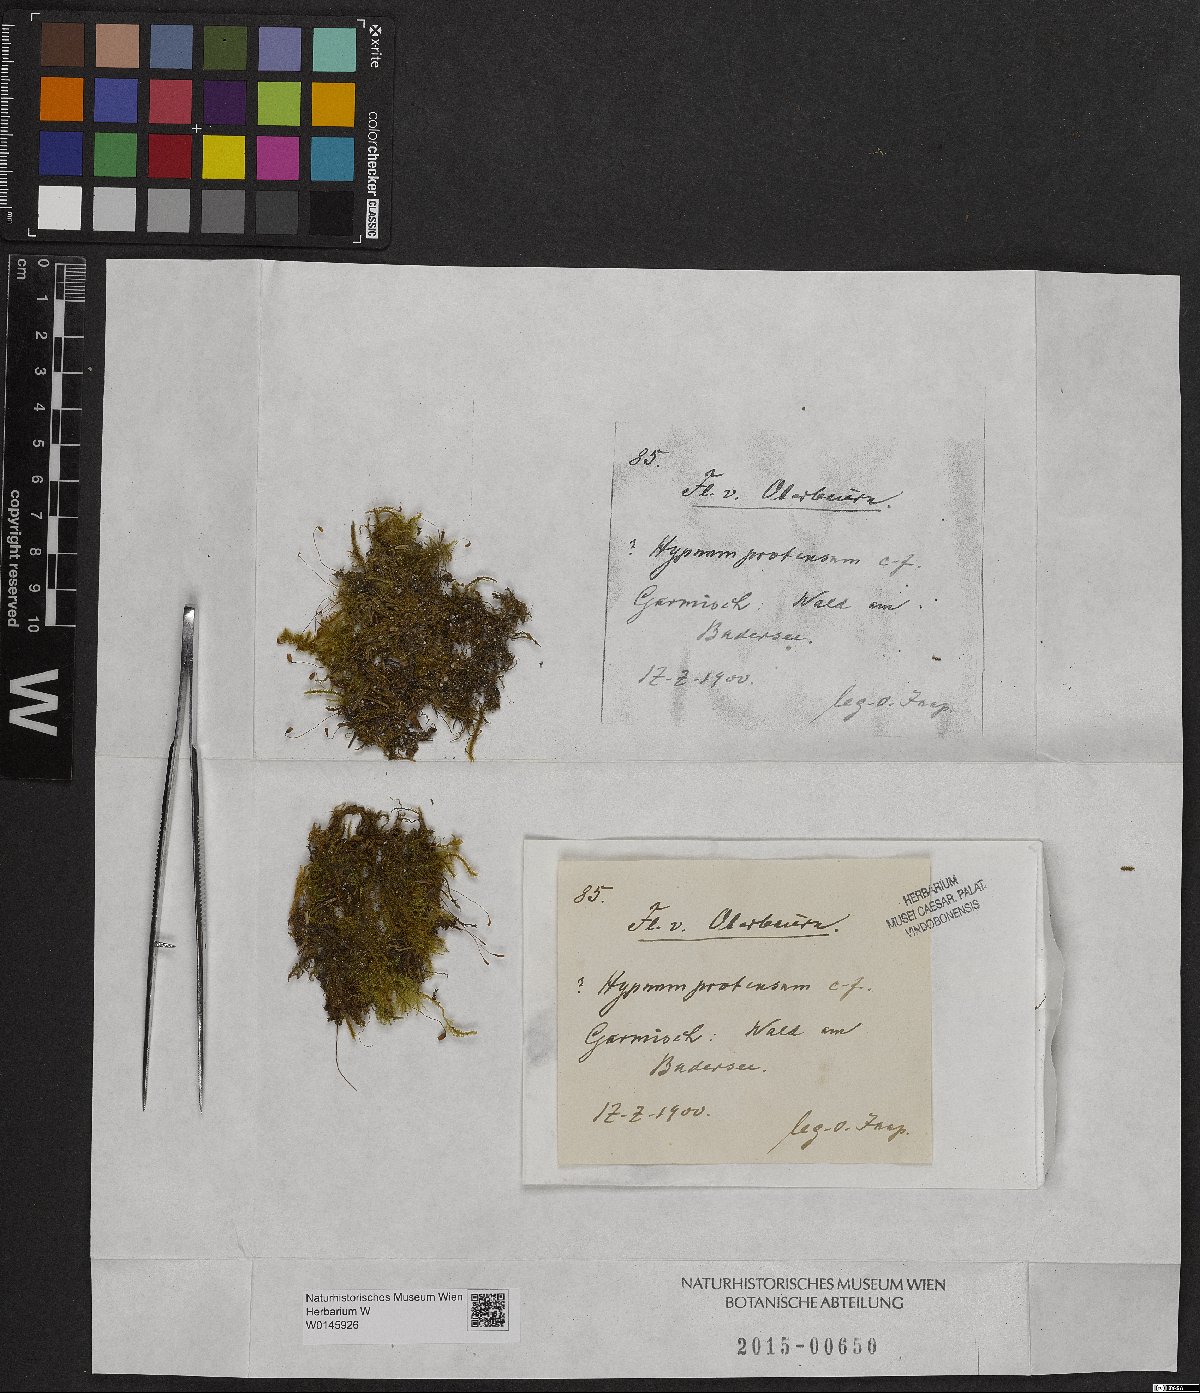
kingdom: Plantae
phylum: Bryophyta
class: Bryopsida
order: Hypnales
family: Amblystegiaceae
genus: Campylium
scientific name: Campylium protensum
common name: Dull starry fen moss
